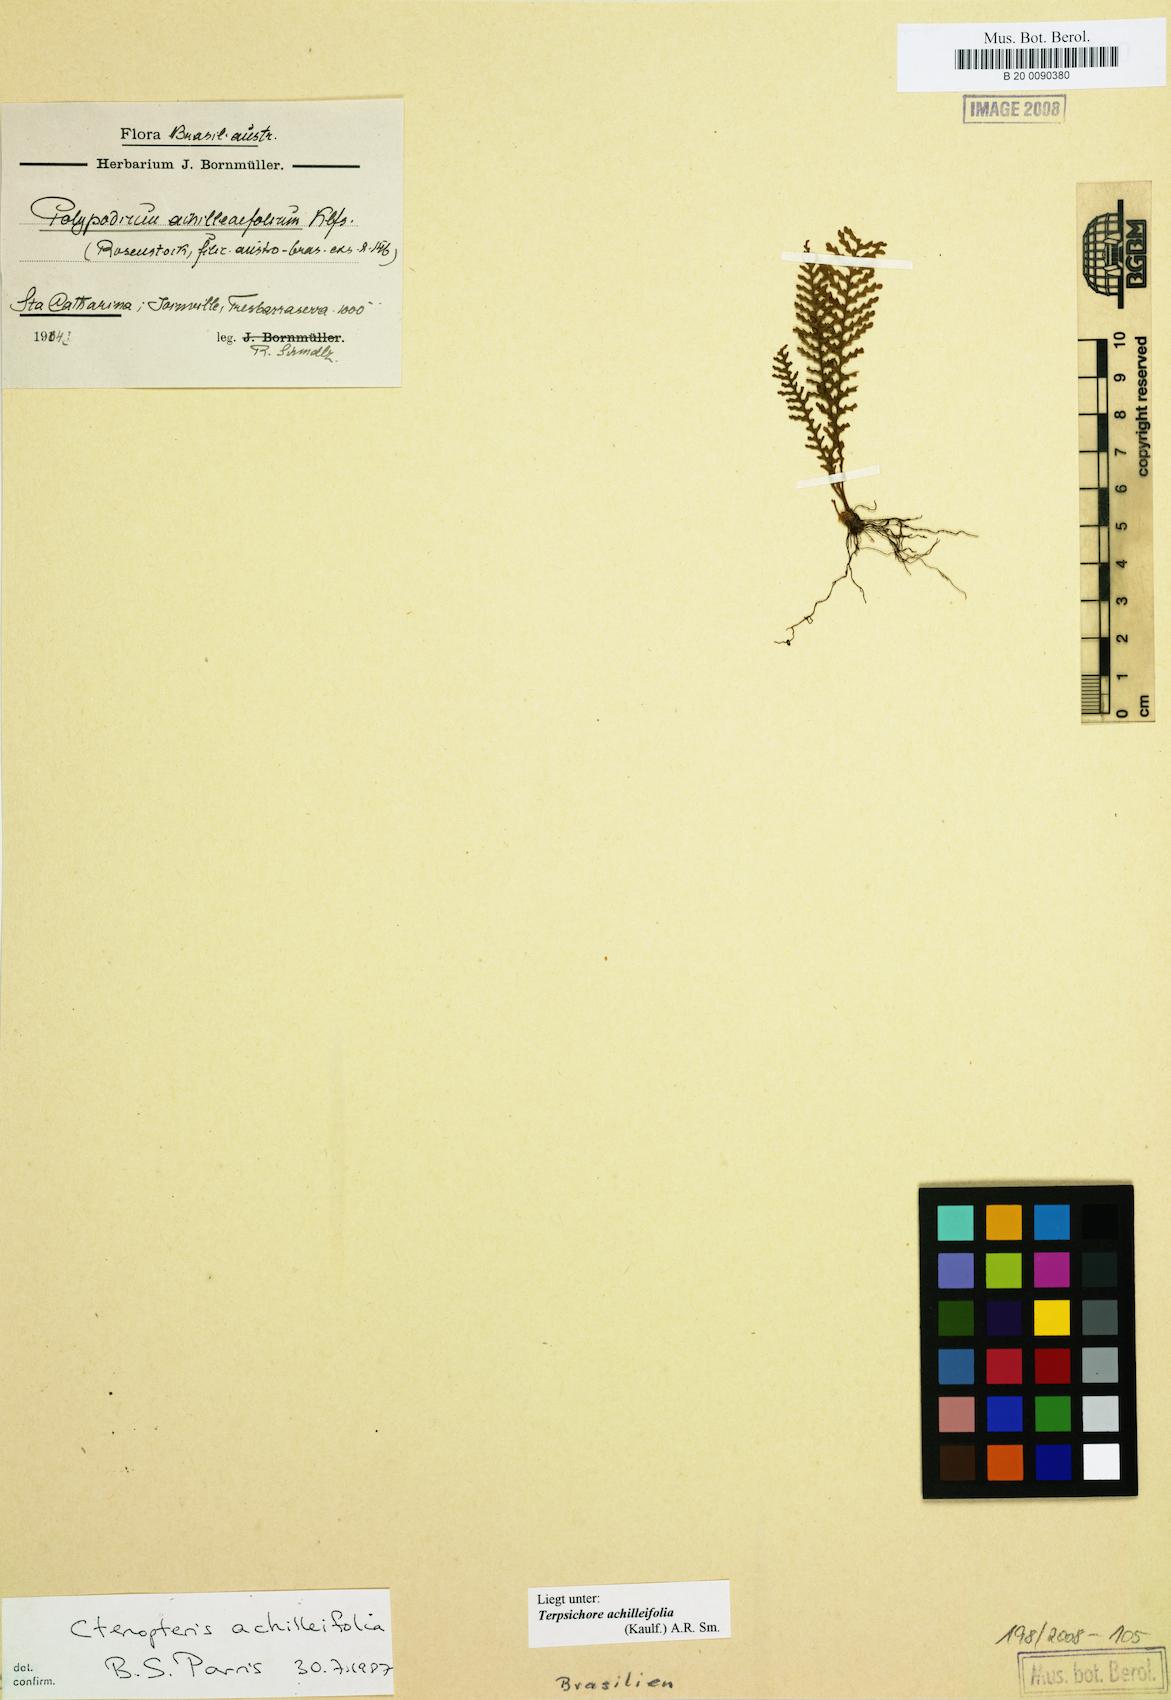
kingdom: Plantae
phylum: Tracheophyta
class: Polypodiopsida
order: Polypodiales
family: Polypodiaceae
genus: Moranopteris
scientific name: Moranopteris achilleifolia
